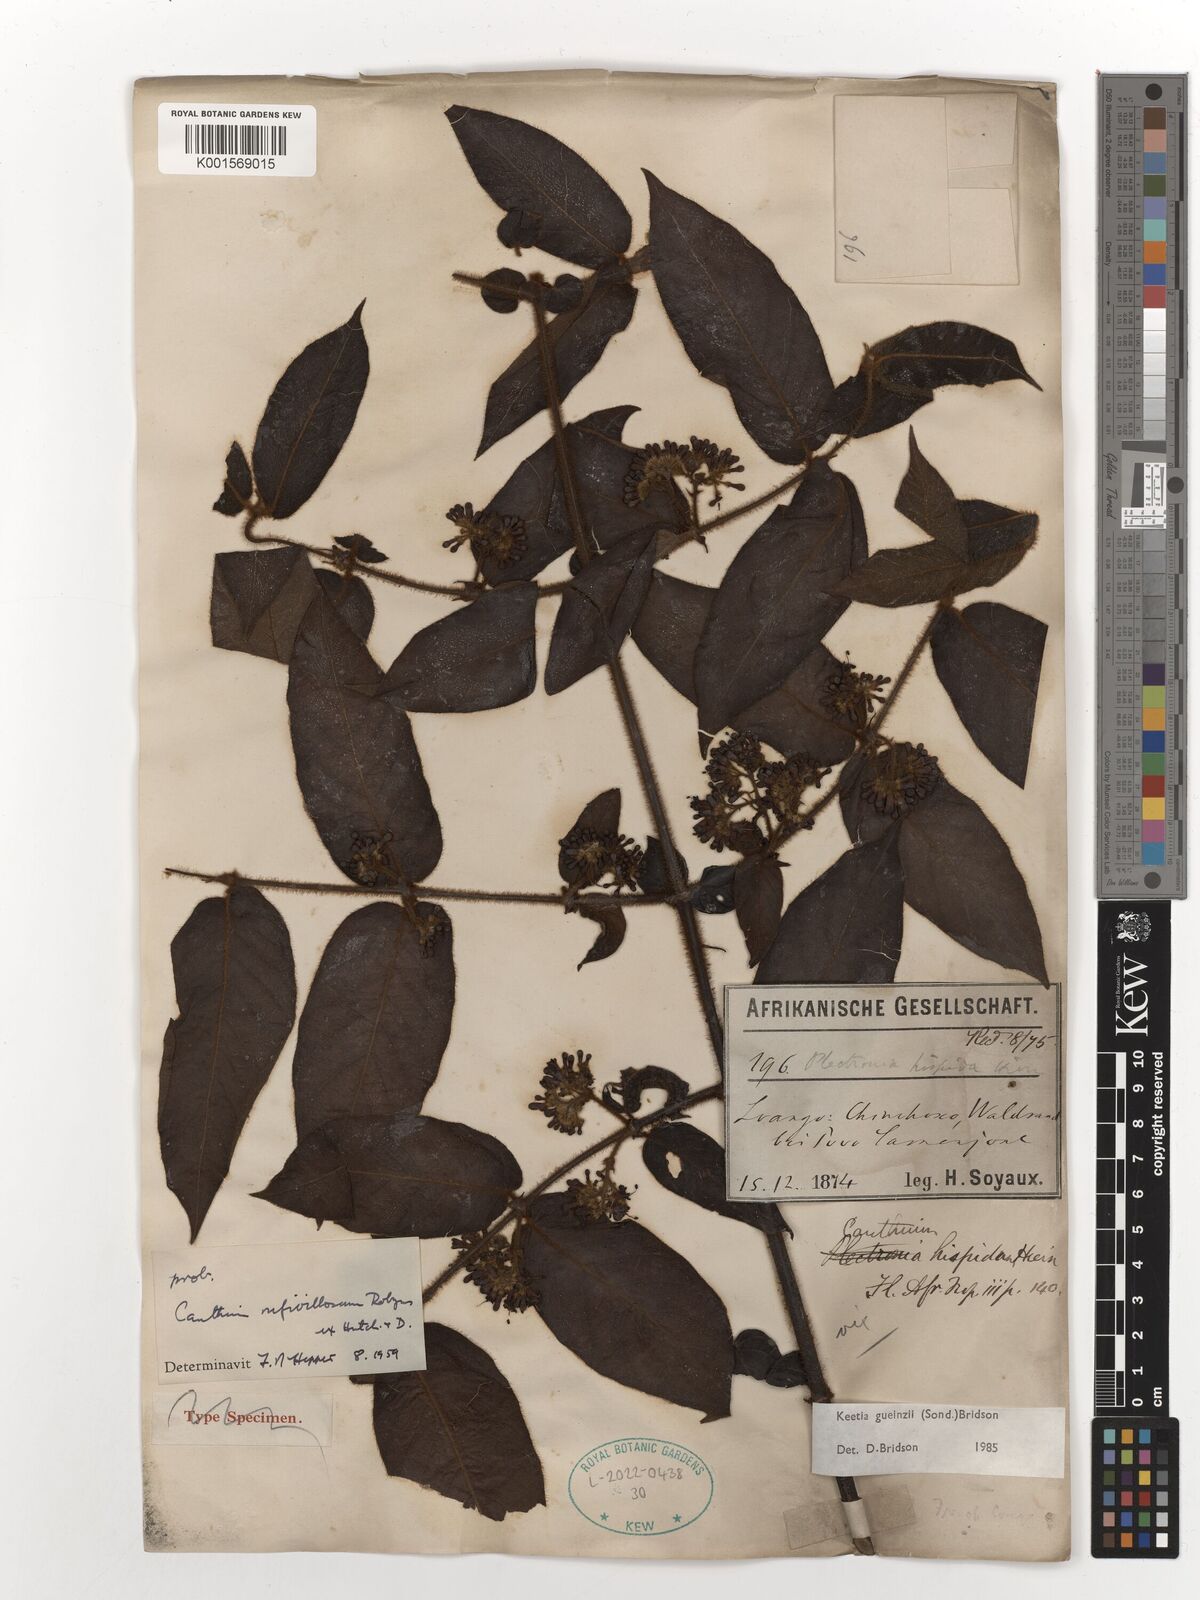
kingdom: Plantae
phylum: Tracheophyta
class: Magnoliopsida
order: Gentianales
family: Rubiaceae
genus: Keetia
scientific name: Keetia gueinzii
